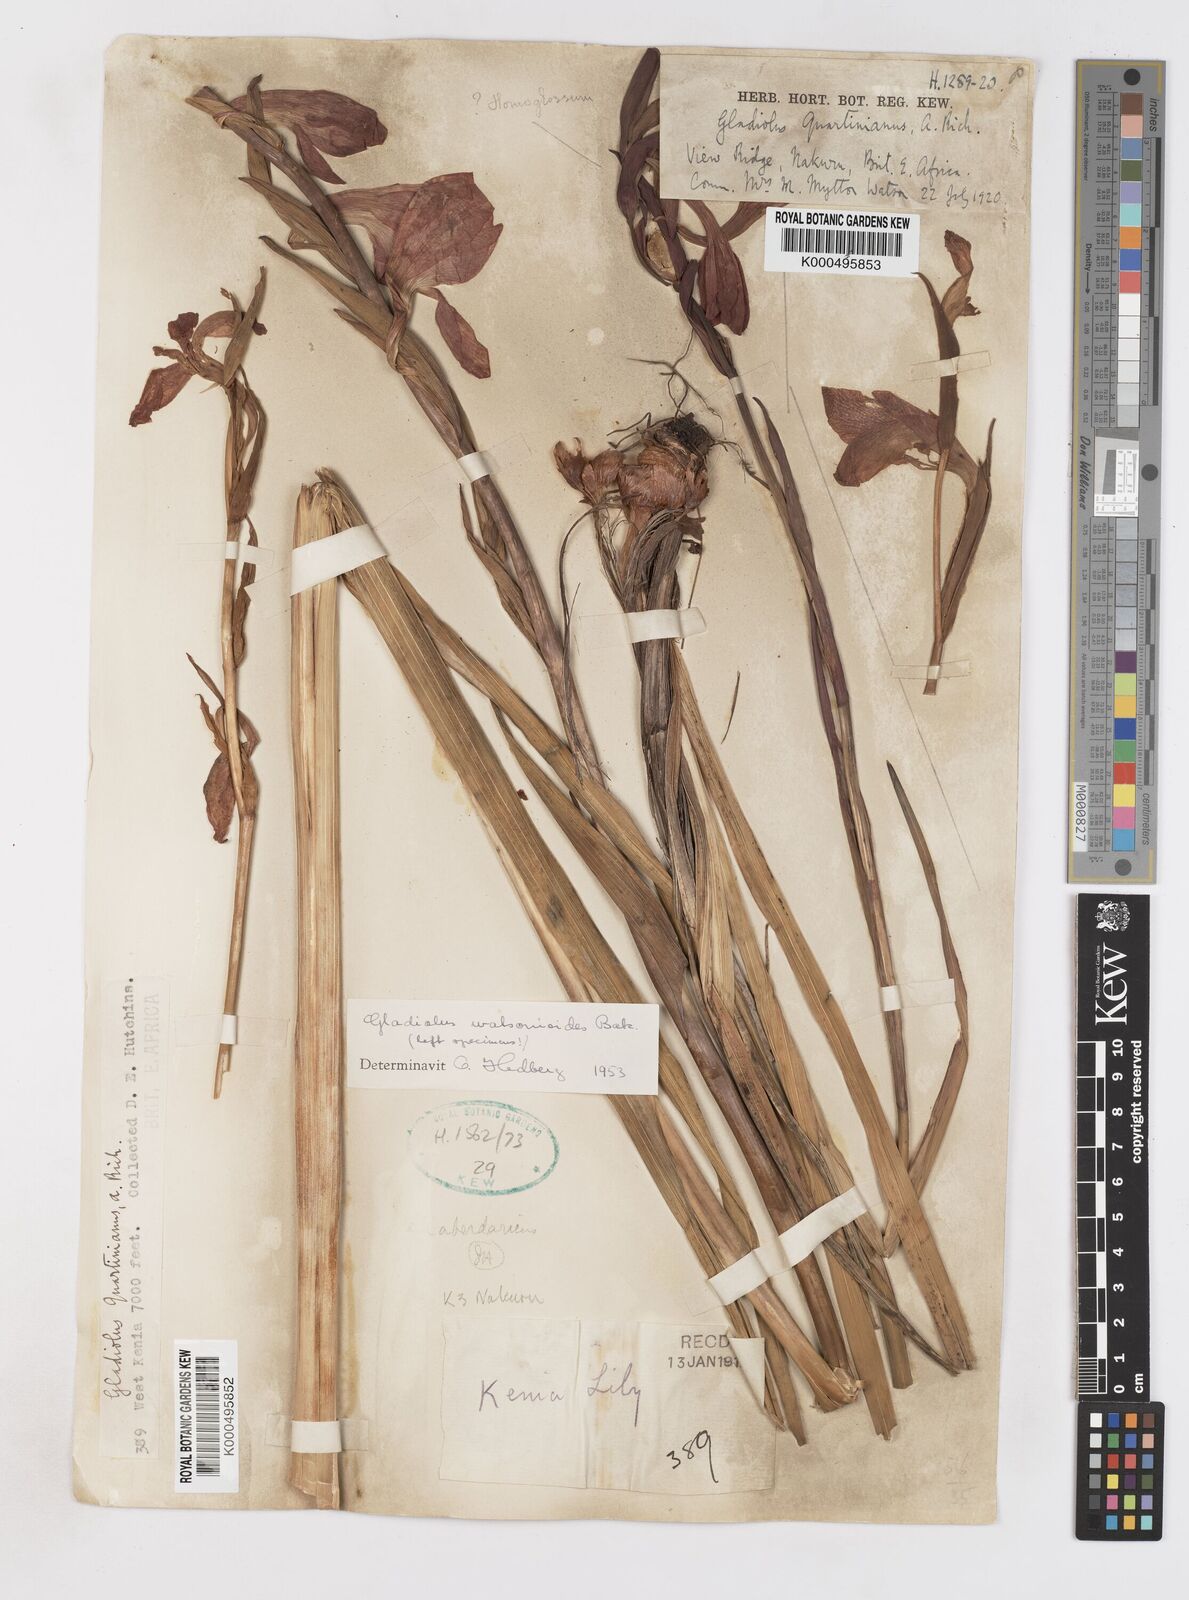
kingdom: Plantae
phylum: Tracheophyta
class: Liliopsida
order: Asparagales
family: Iridaceae
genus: Gladiolus
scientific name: Gladiolus watsonioides
